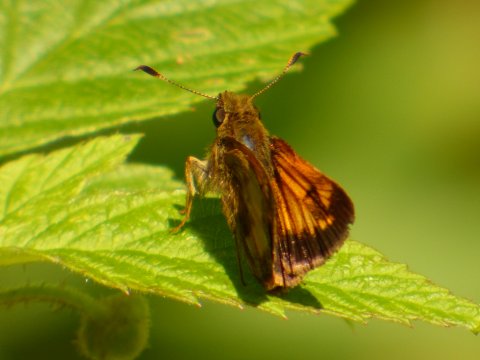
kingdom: Animalia
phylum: Arthropoda
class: Insecta
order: Lepidoptera
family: Hesperiidae
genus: Lon
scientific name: Lon hobomok
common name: Hobomok Skipper
